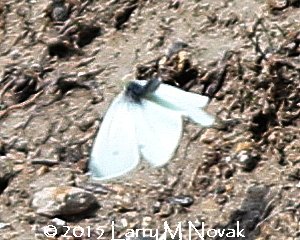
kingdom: Animalia
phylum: Arthropoda
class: Insecta
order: Lepidoptera
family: Pieridae
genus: Pieris
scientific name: Pieris rapae
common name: Cabbage White
